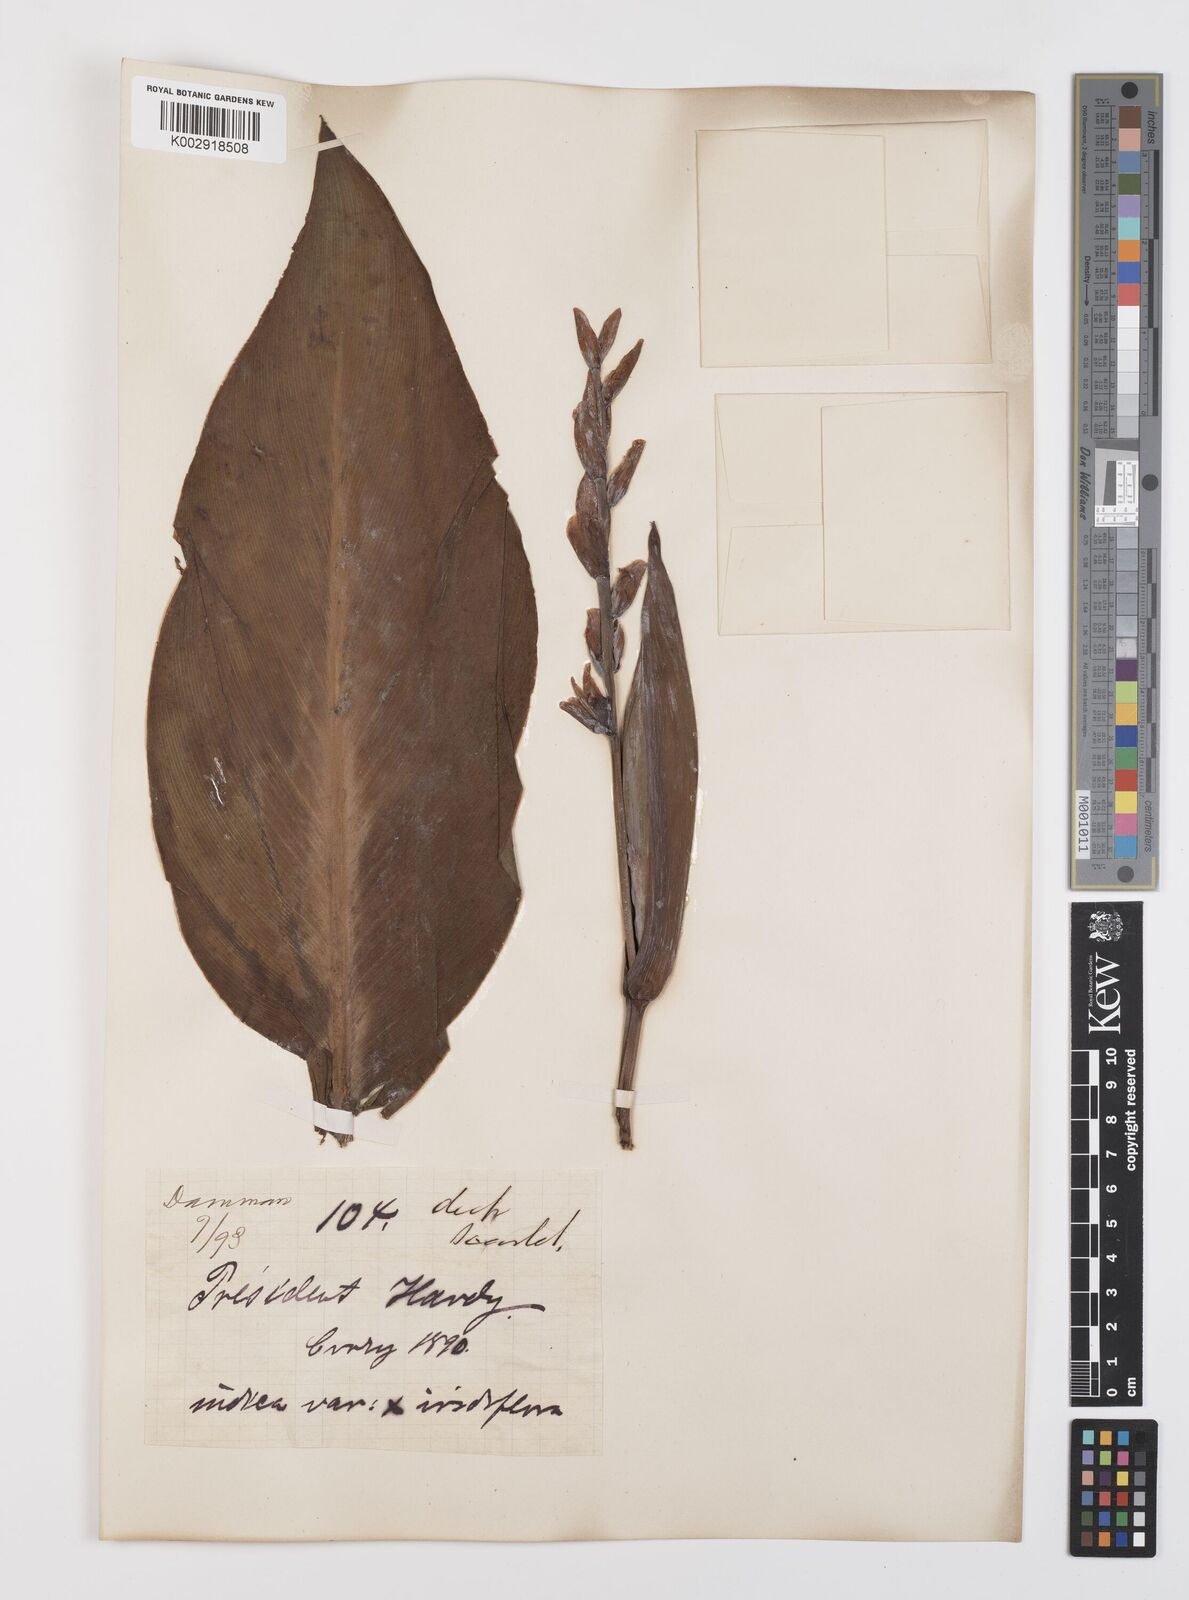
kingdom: Plantae
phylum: Tracheophyta
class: Liliopsida
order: Zingiberales
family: Cannaceae
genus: Canna
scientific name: Canna indica
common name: Indian shot
